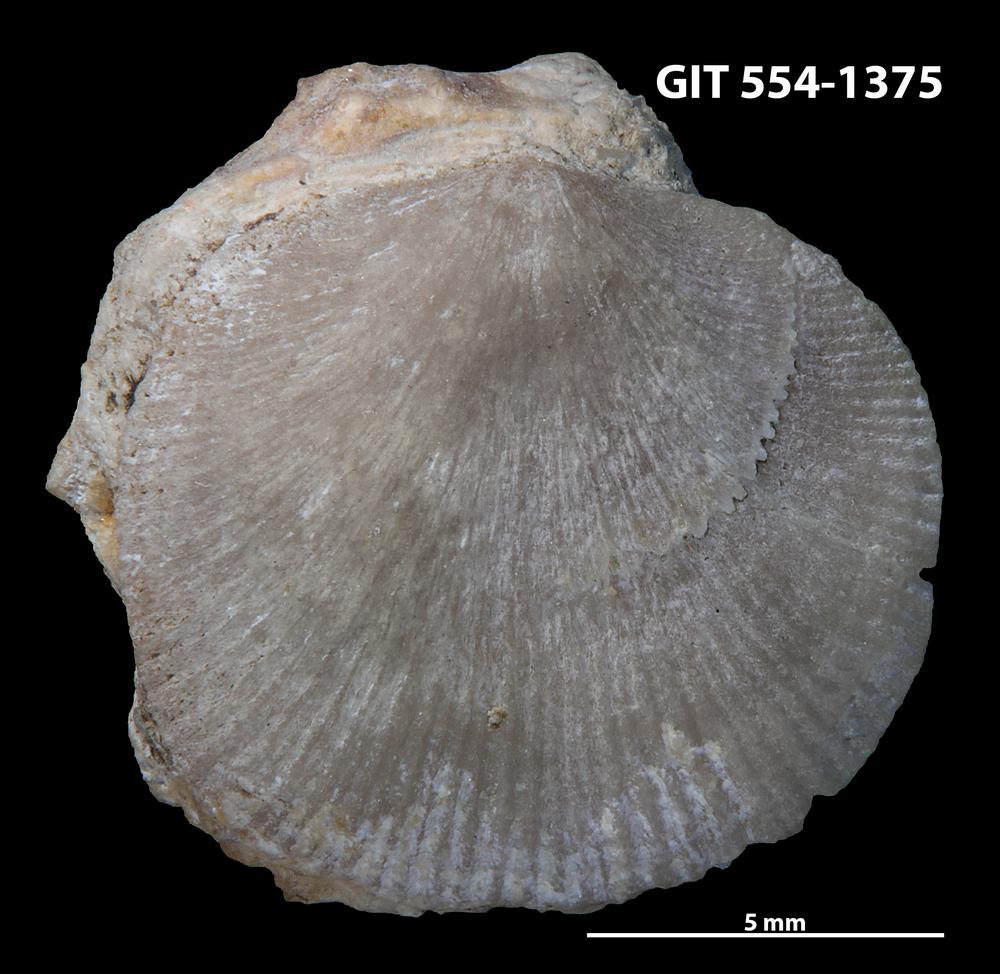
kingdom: Animalia
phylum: Brachiopoda
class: Rhynchonellata
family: Dalmanellidae
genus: Dalmanella
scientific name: Dalmanella cyclica
